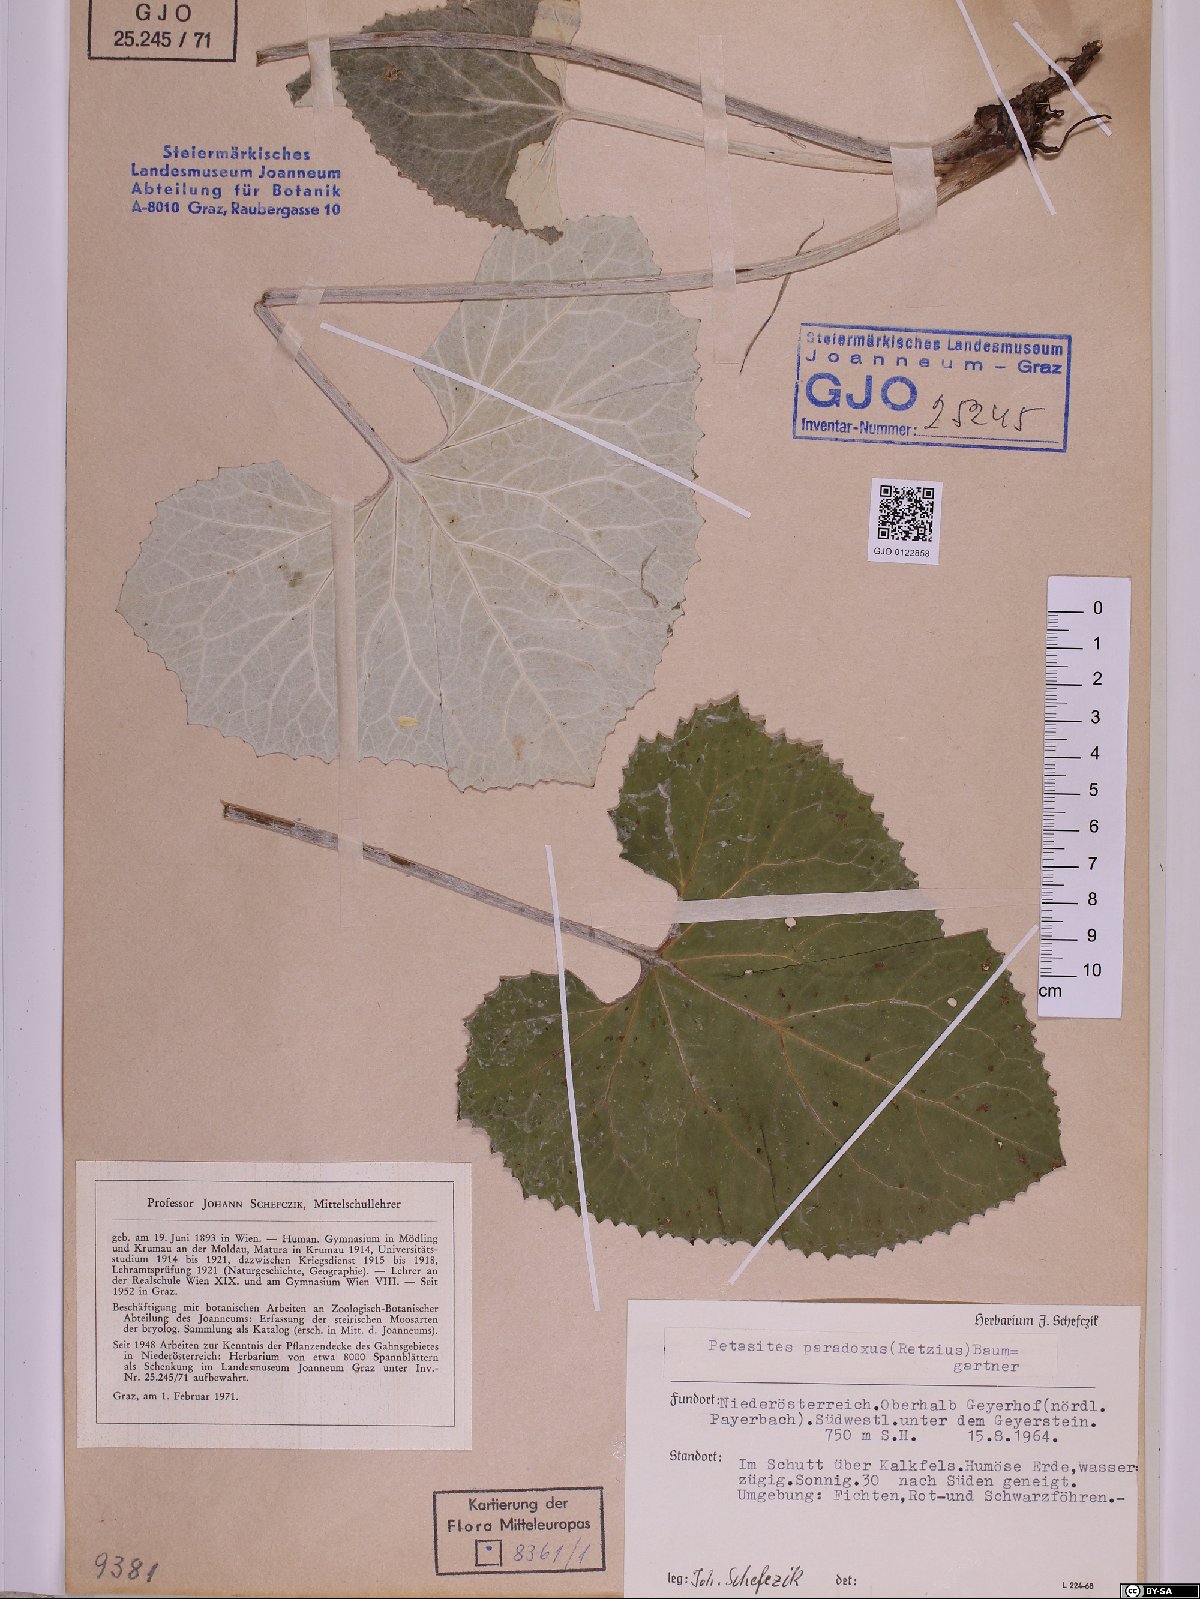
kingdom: Plantae
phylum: Tracheophyta
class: Magnoliopsida
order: Asterales
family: Asteraceae
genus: Petasites
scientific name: Petasites paradoxus
